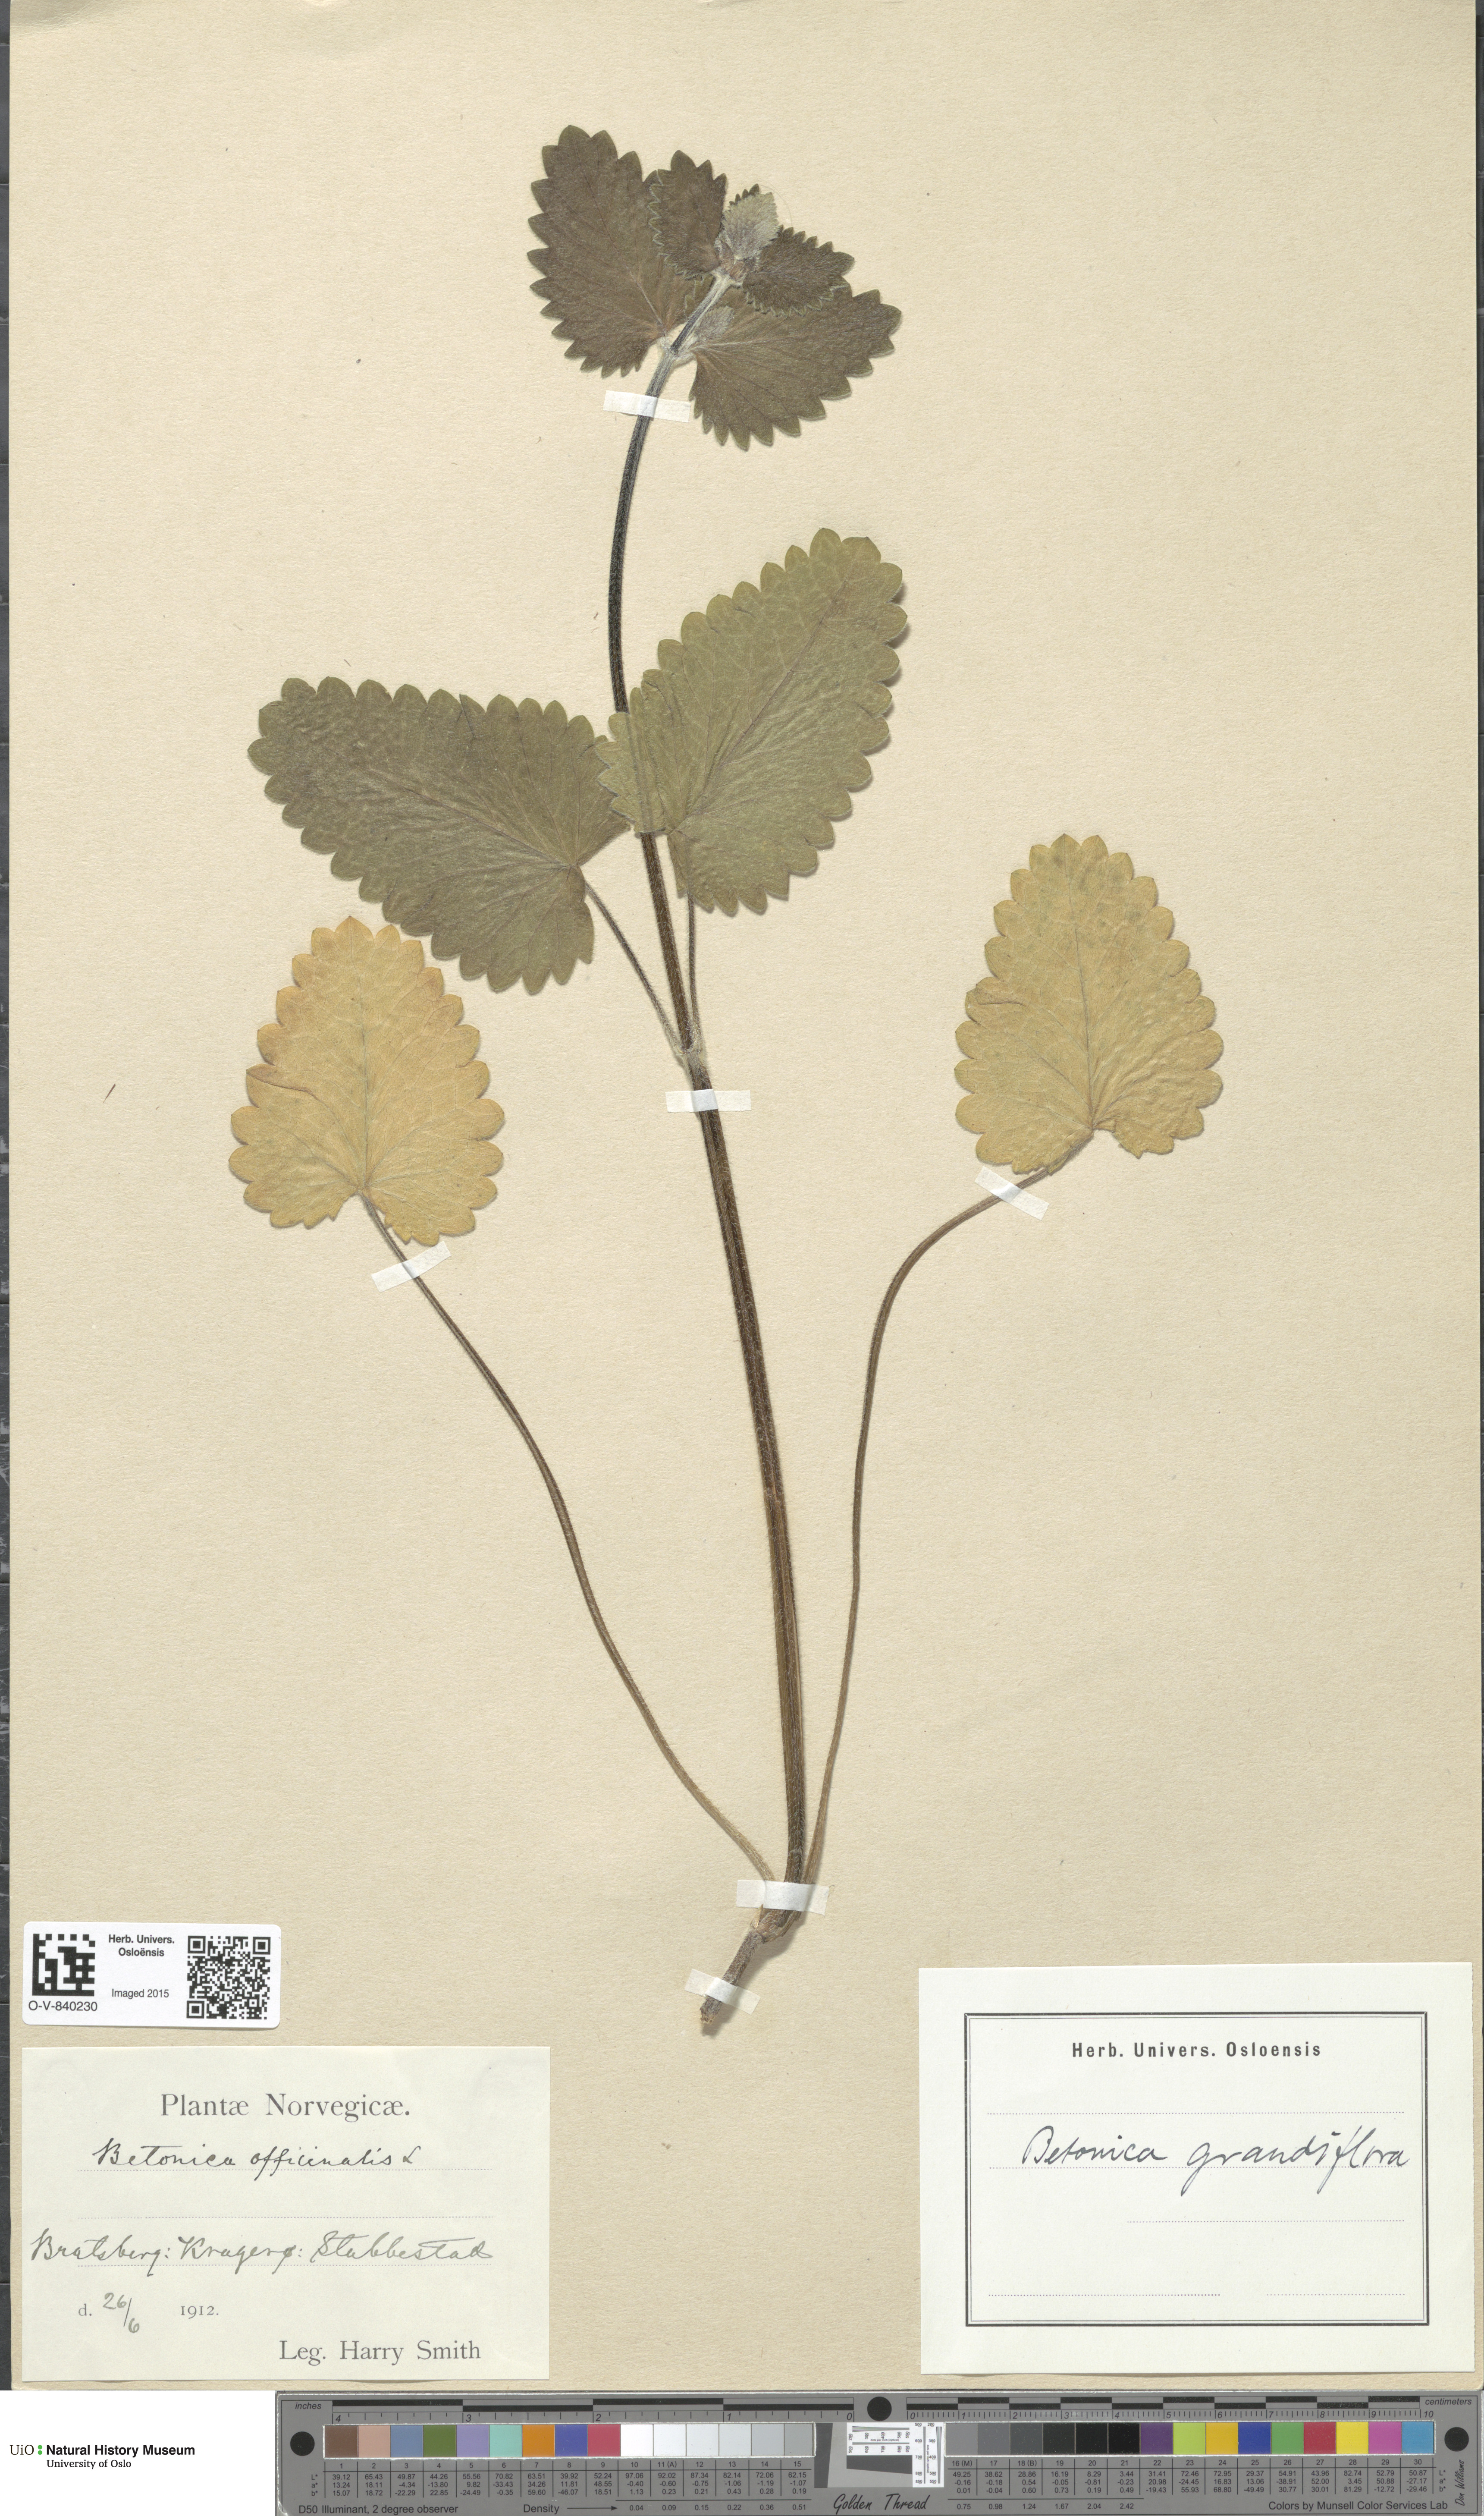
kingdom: Plantae
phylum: Tracheophyta
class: Magnoliopsida
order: Lamiales
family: Lamiaceae
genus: Betonica
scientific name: Betonica officinalis
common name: Bishop's-wort
